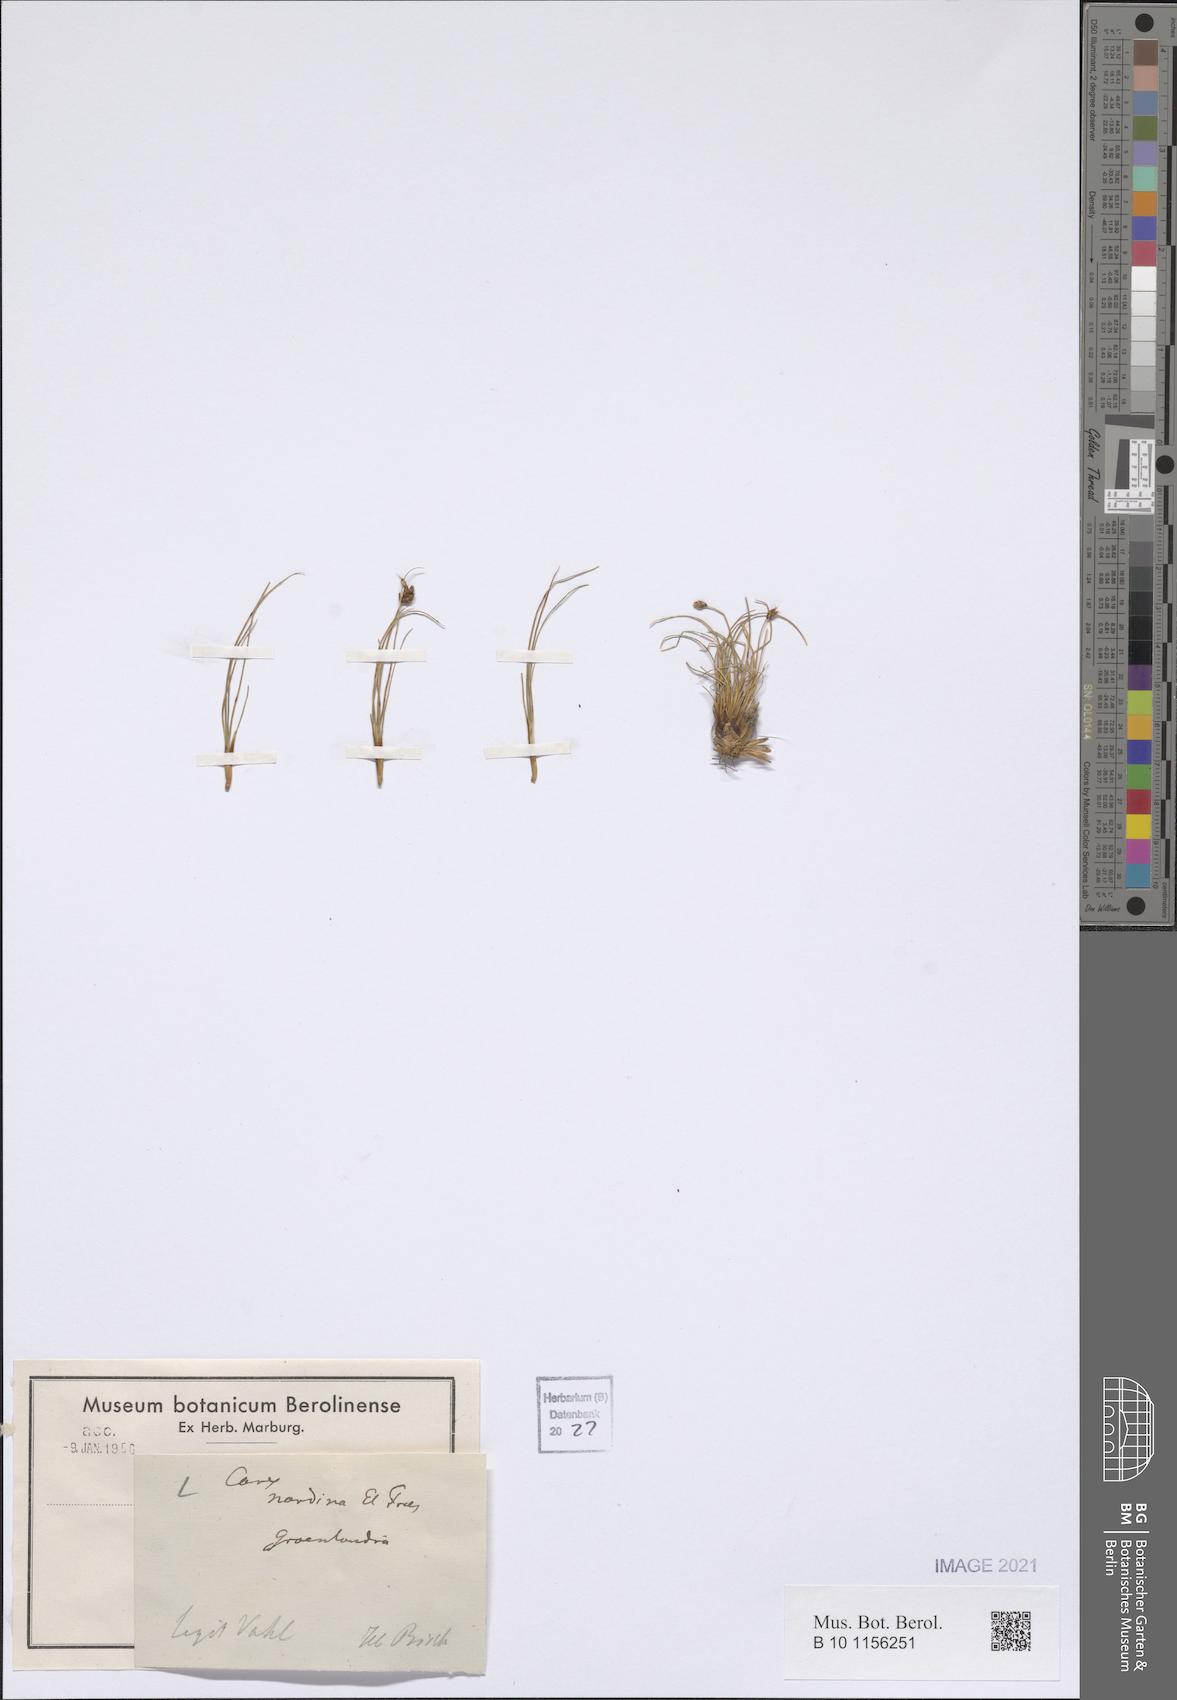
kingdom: Plantae
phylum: Tracheophyta
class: Liliopsida
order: Poales
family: Cyperaceae
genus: Carex
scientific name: Carex nardina
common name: Nard sedge
